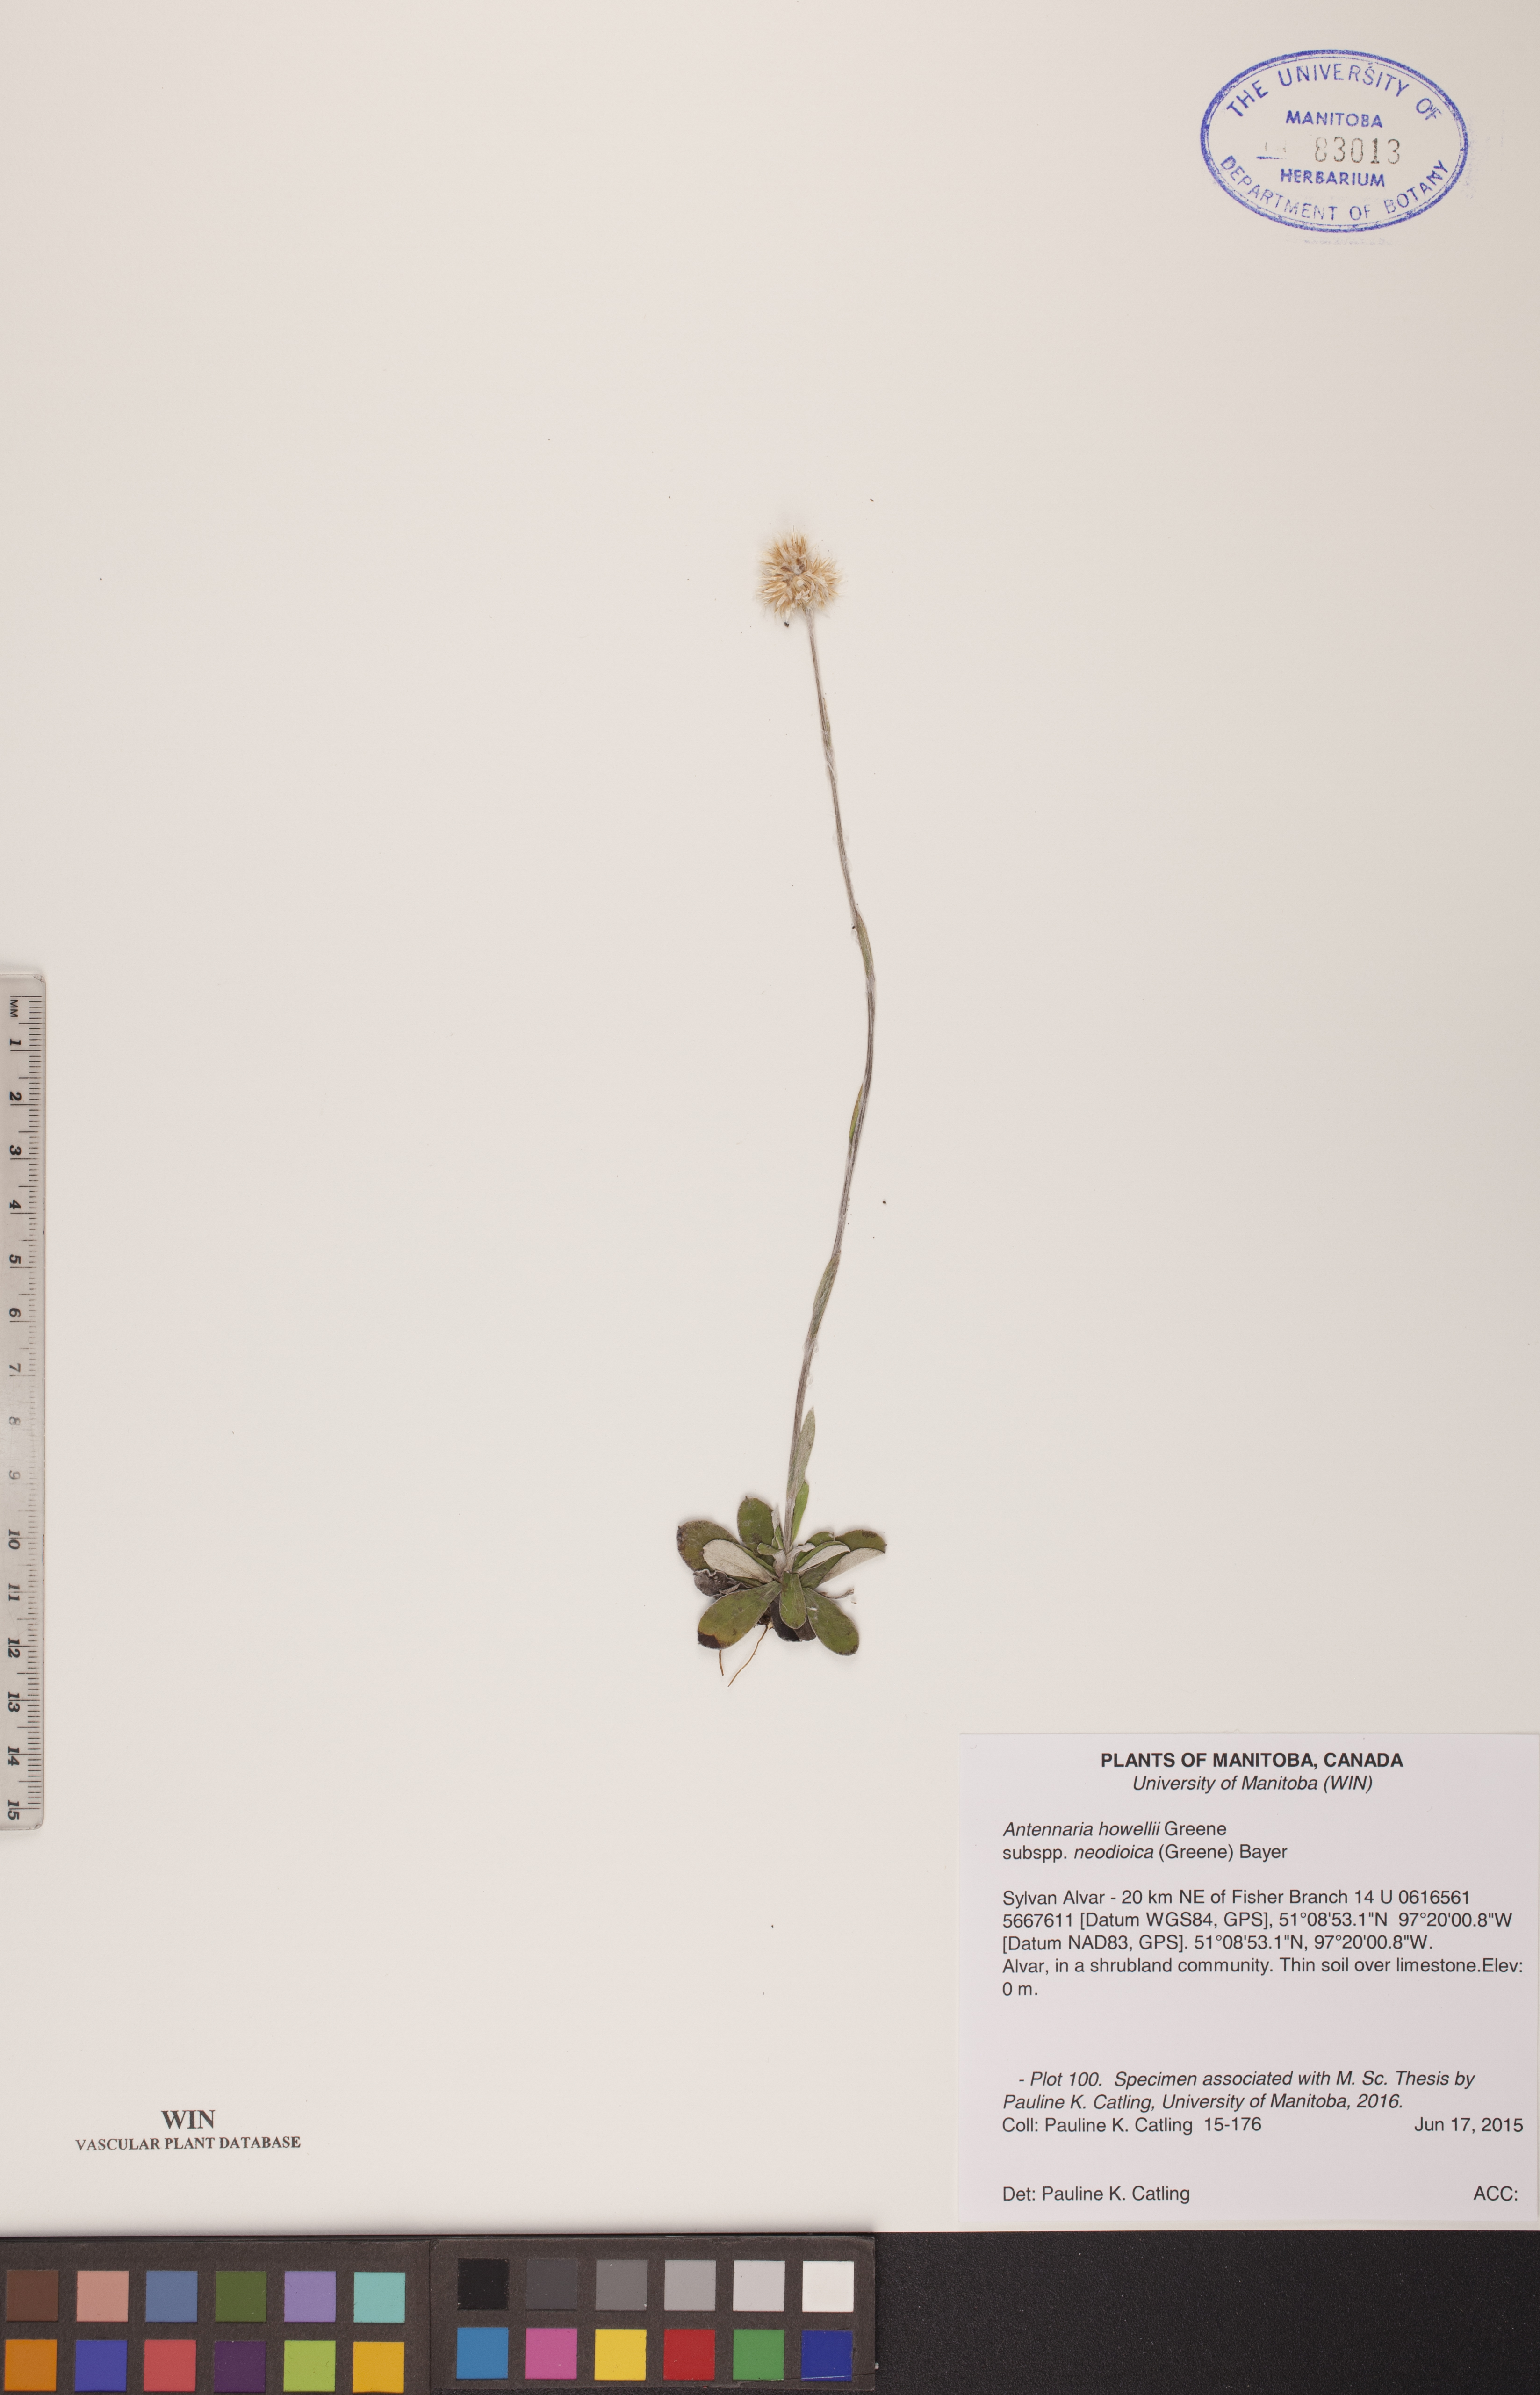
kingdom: Plantae
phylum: Tracheophyta
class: Magnoliopsida
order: Asterales
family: Asteraceae
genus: Antennaria
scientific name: Antennaria howellii
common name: Howell's pussytoes
